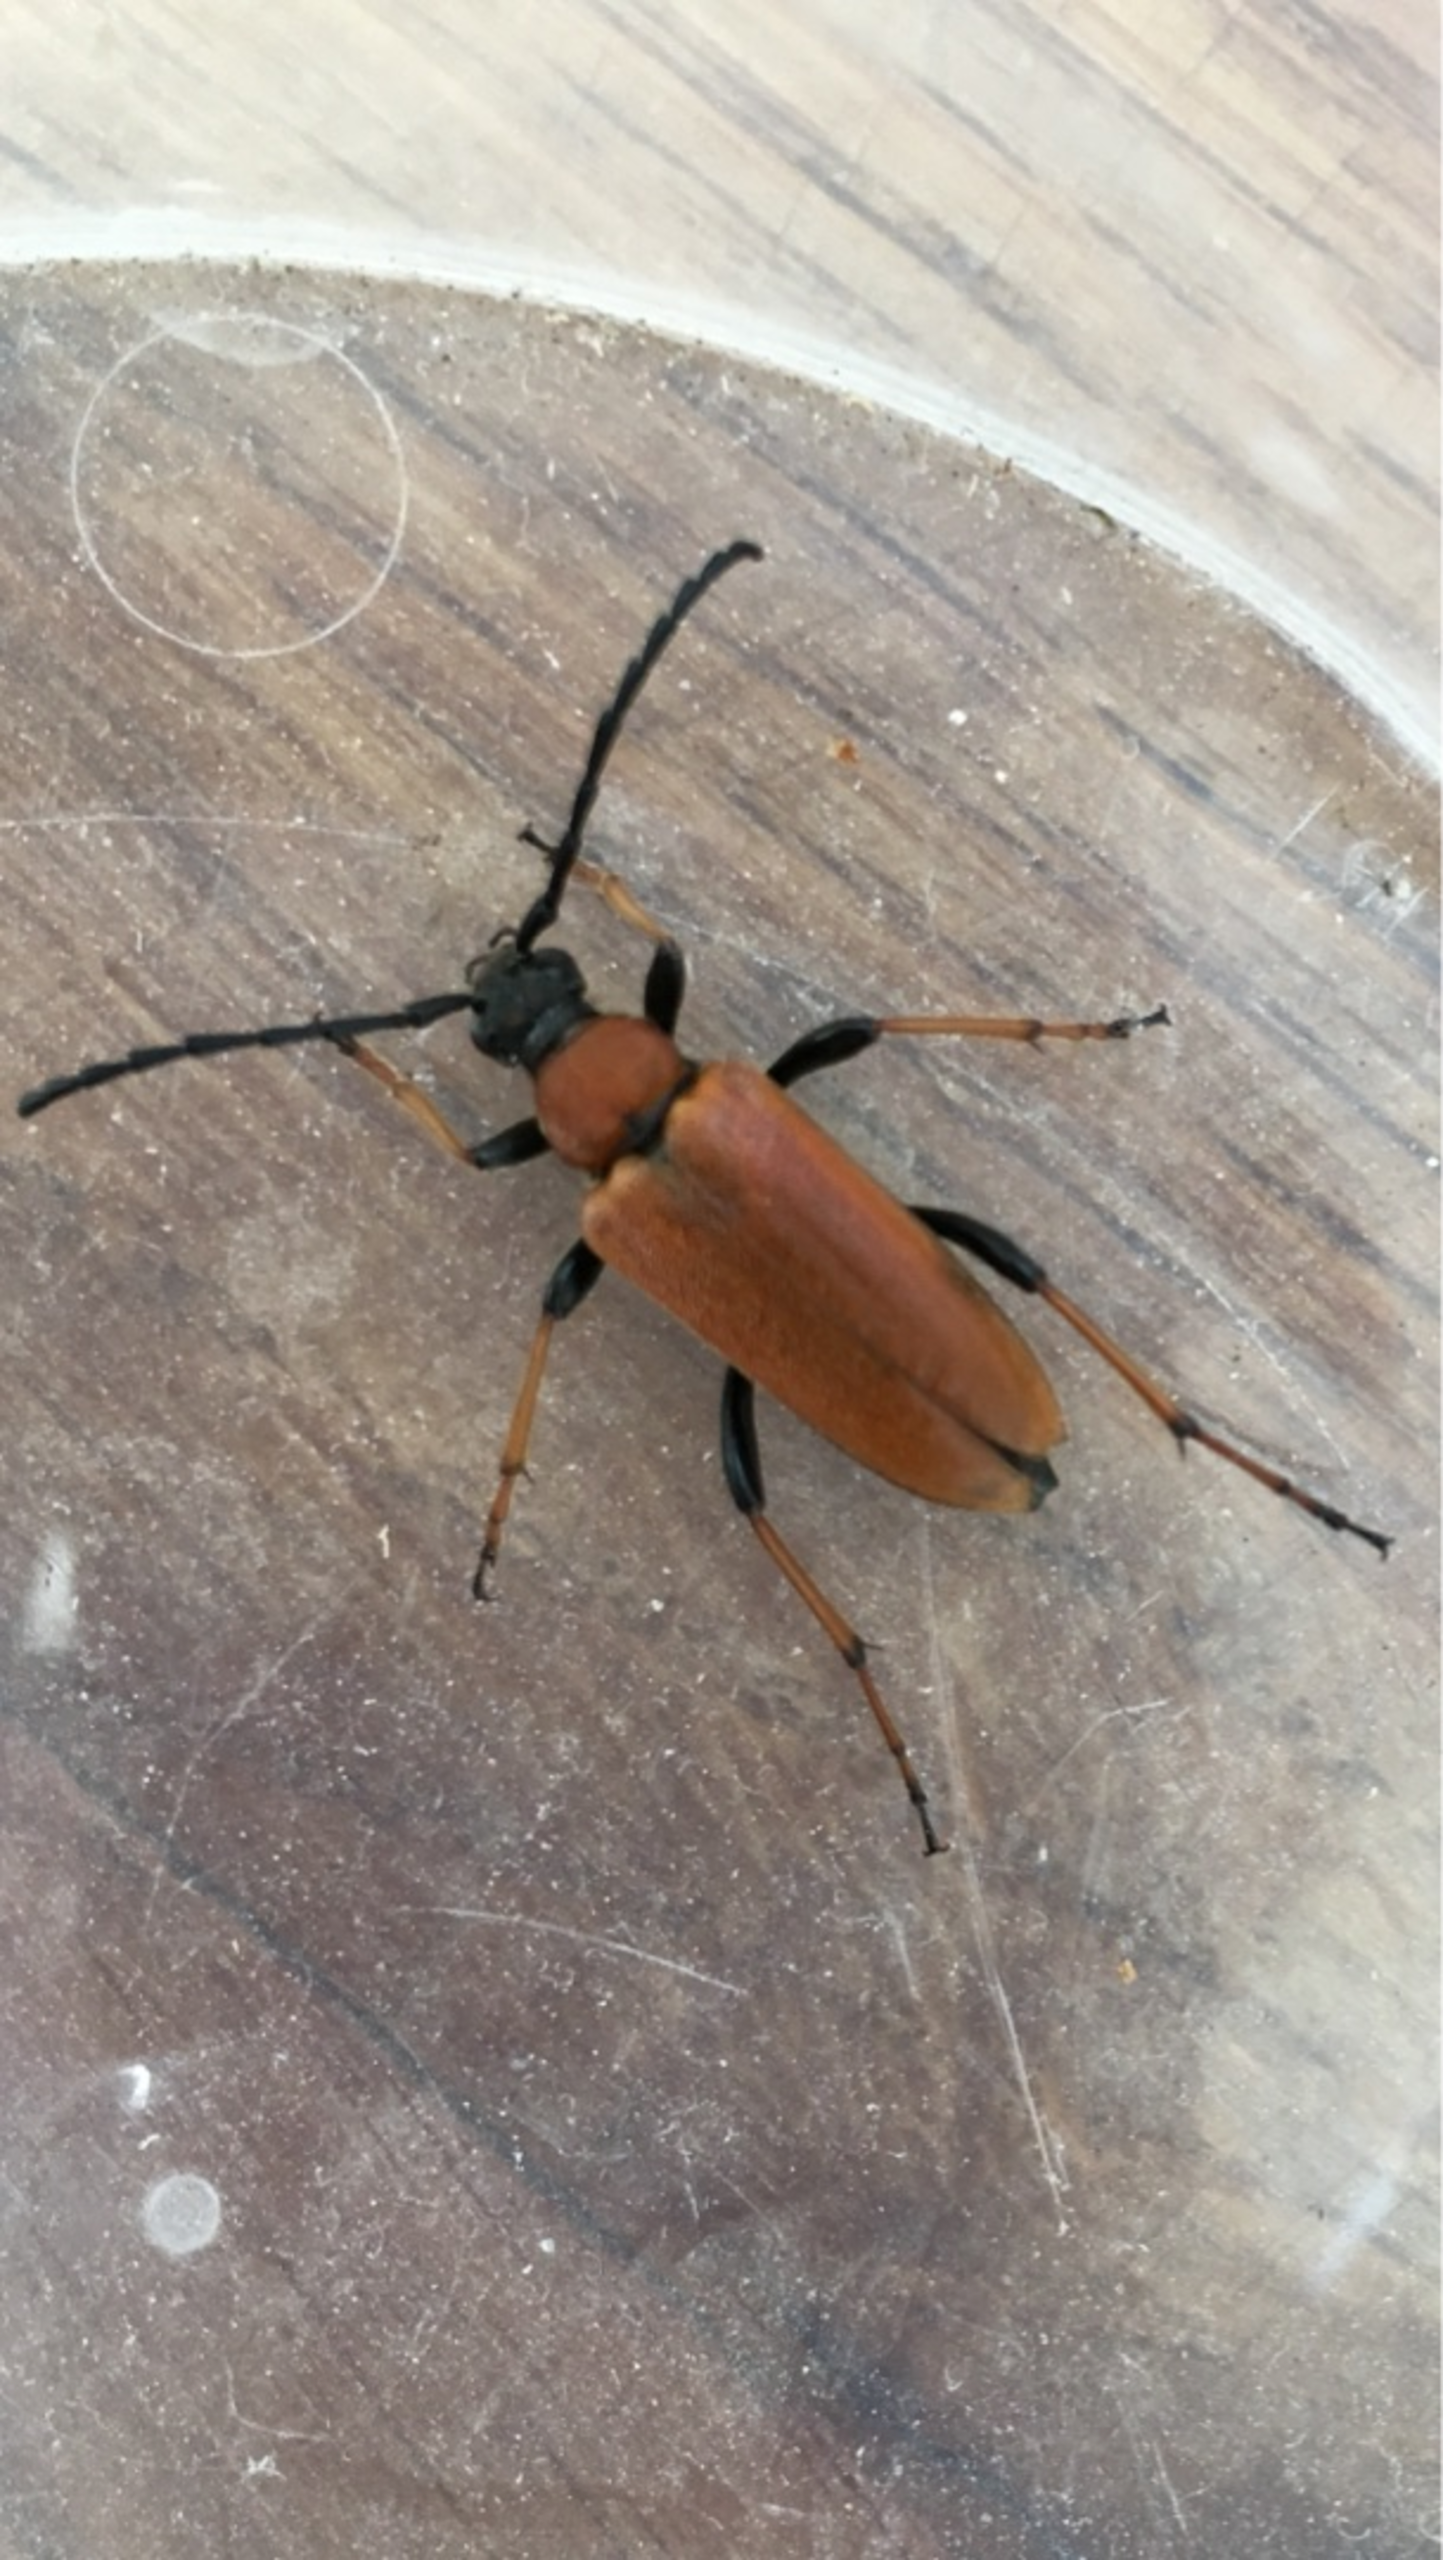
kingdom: Animalia
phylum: Arthropoda
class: Insecta
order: Coleoptera
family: Cerambycidae
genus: Stictoleptura
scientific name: Stictoleptura rubra
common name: Rød blomsterbuk
